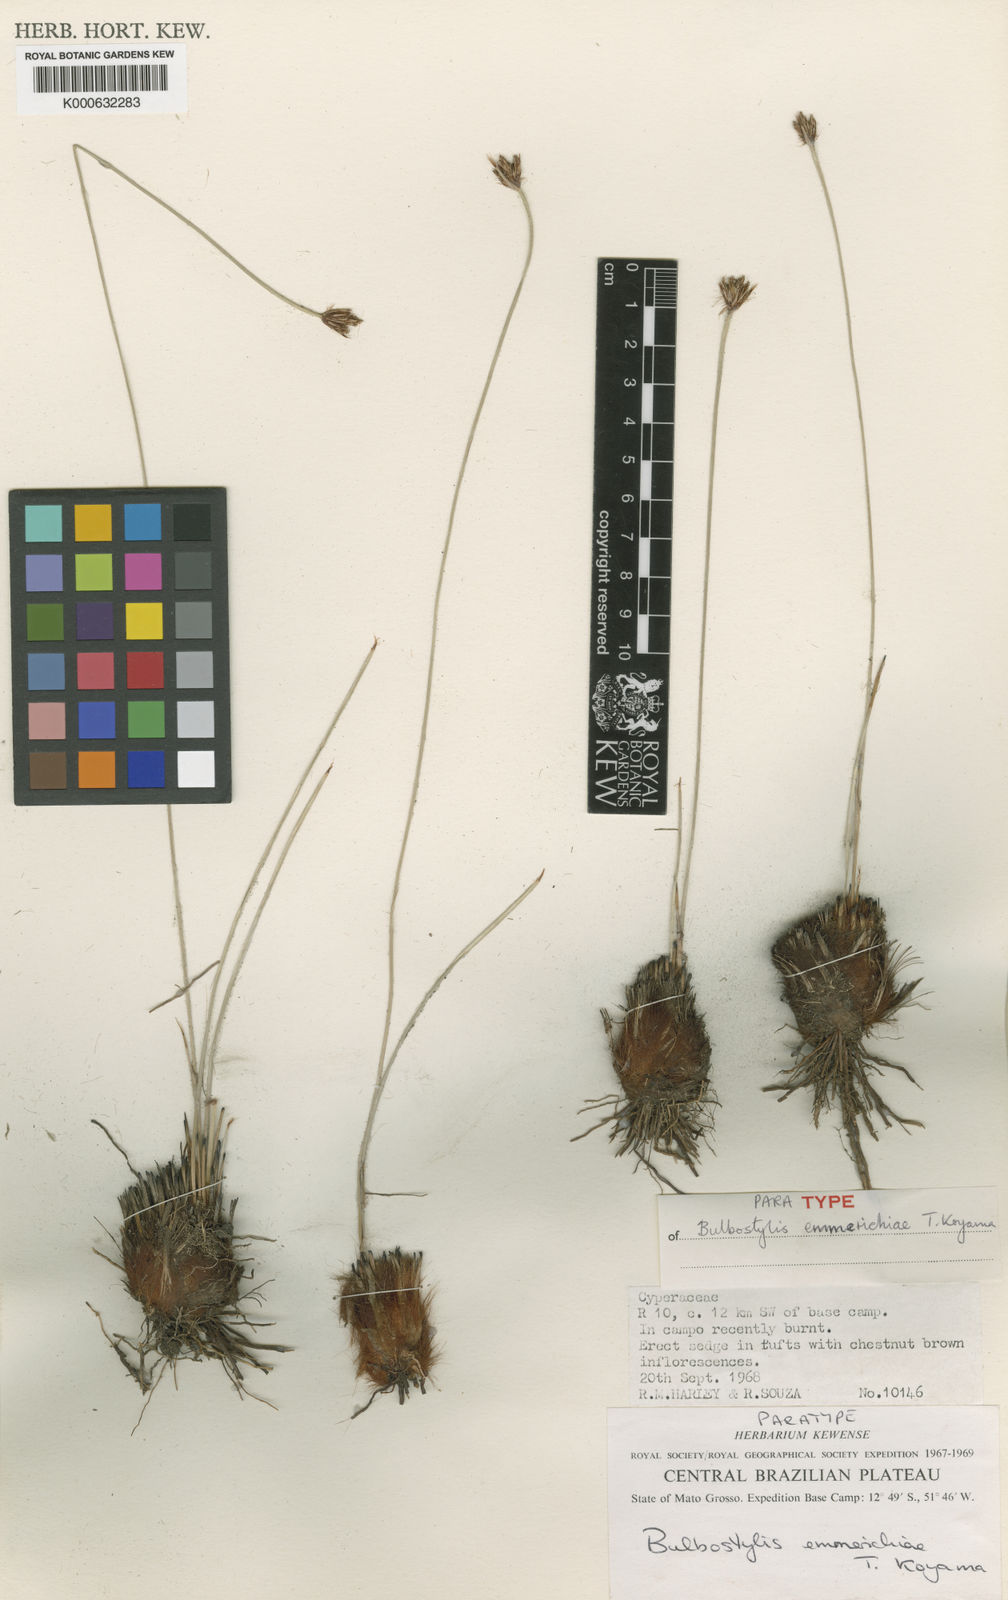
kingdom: Plantae
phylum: Tracheophyta
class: Liliopsida
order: Poales
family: Cyperaceae
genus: Bulbostylis
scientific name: Bulbostylis emmerichiae
